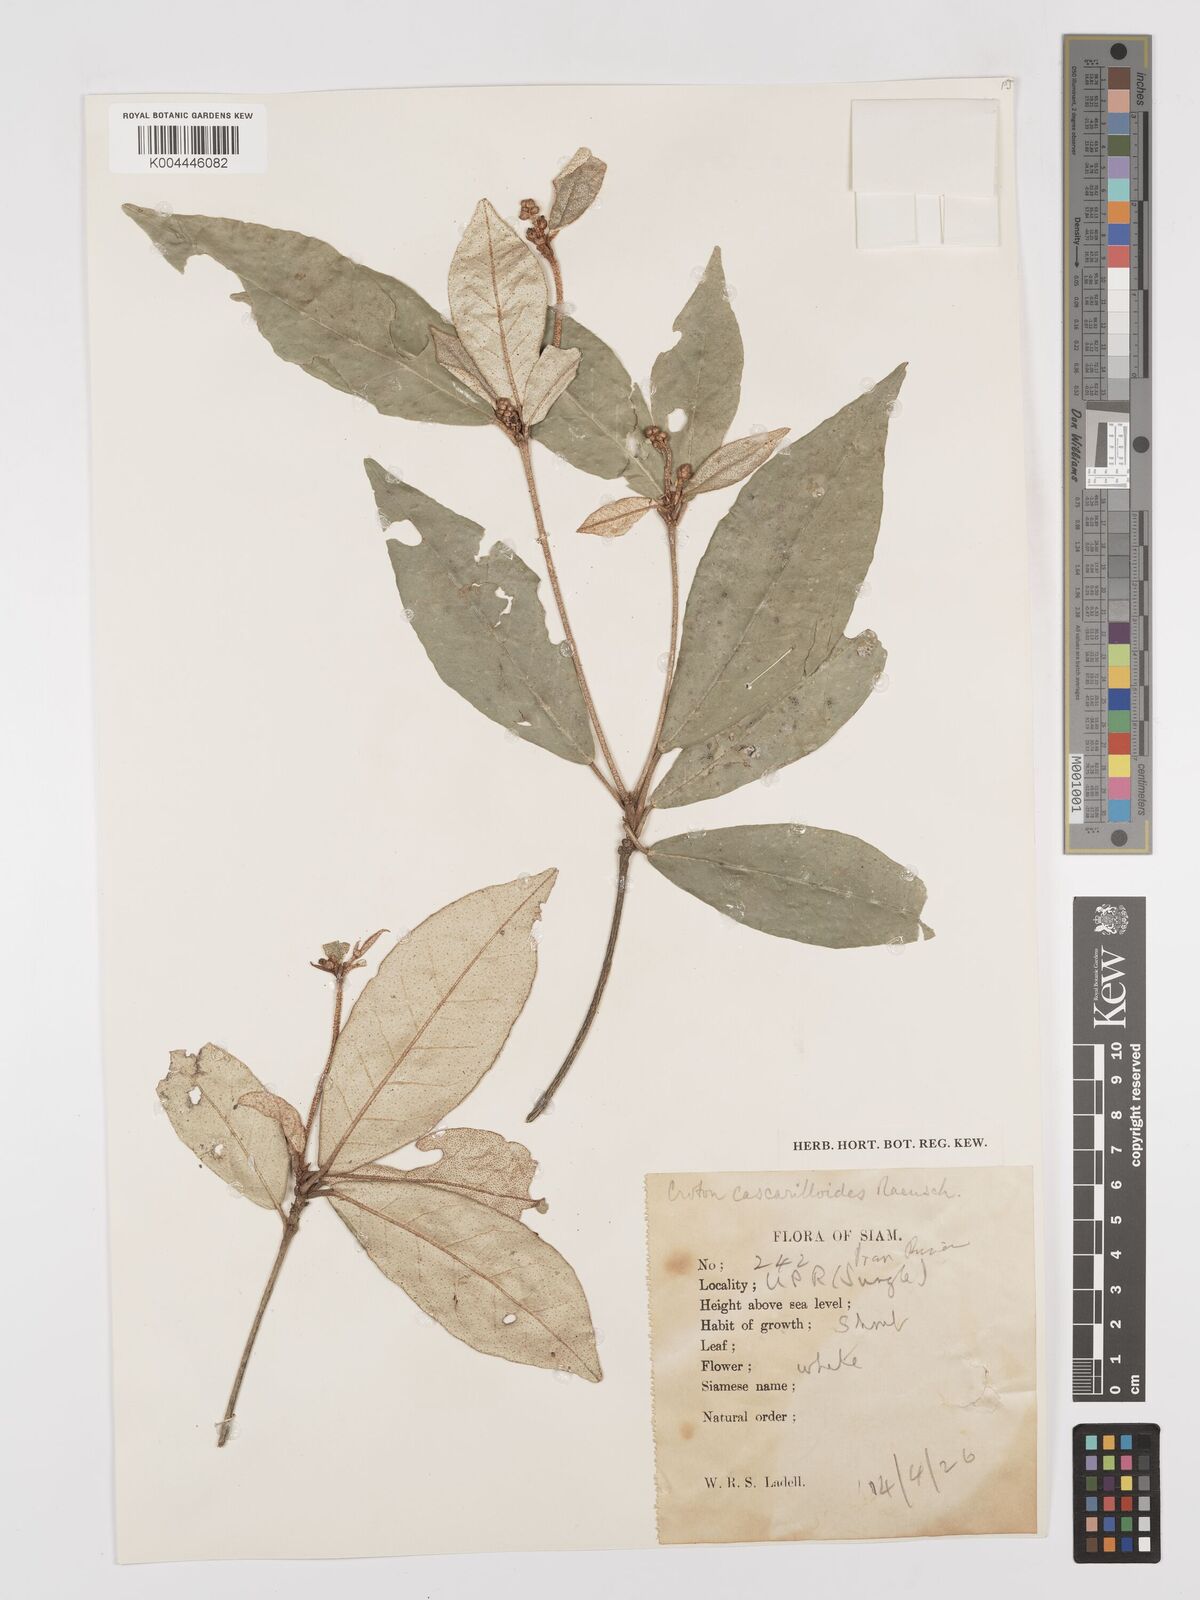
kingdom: Plantae
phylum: Tracheophyta
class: Magnoliopsida
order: Malpighiales
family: Euphorbiaceae
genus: Croton
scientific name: Croton cascarilloides
